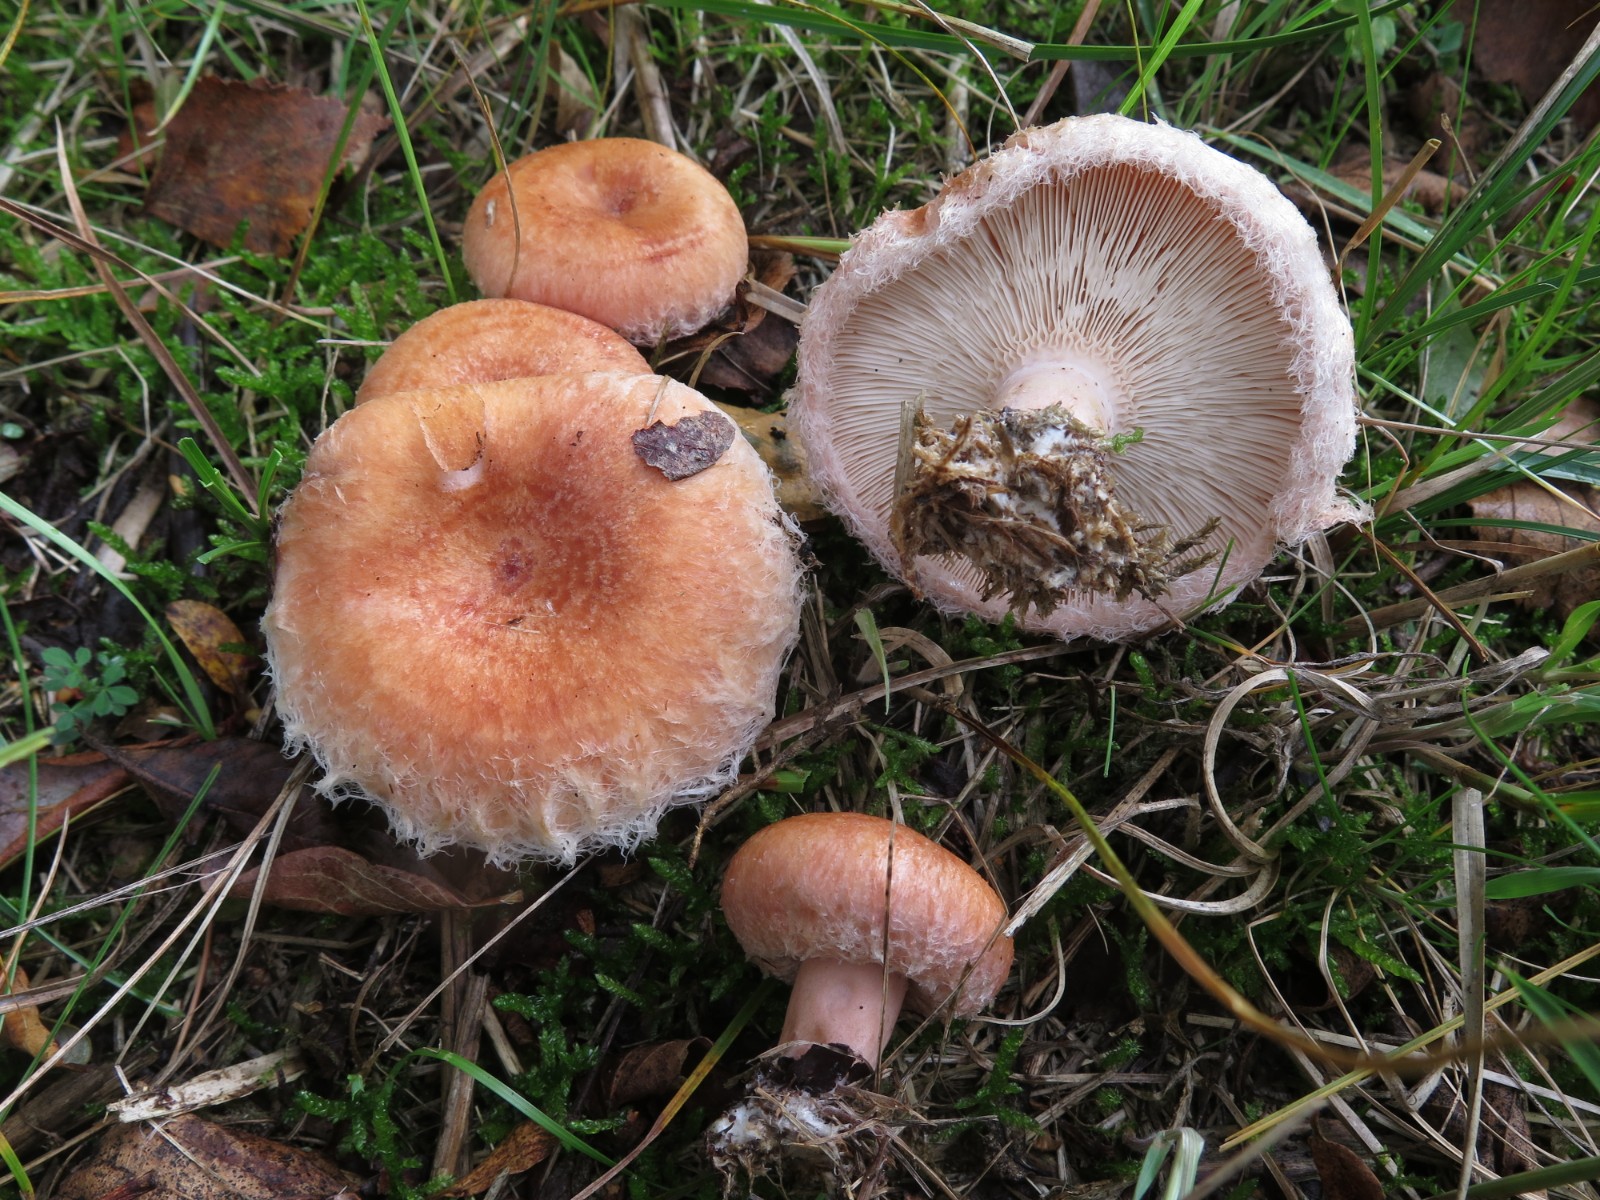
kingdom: Fungi
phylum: Basidiomycota
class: Agaricomycetes
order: Russulales
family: Russulaceae
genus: Lactarius
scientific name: Lactarius torminosus
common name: skægget mælkehat
